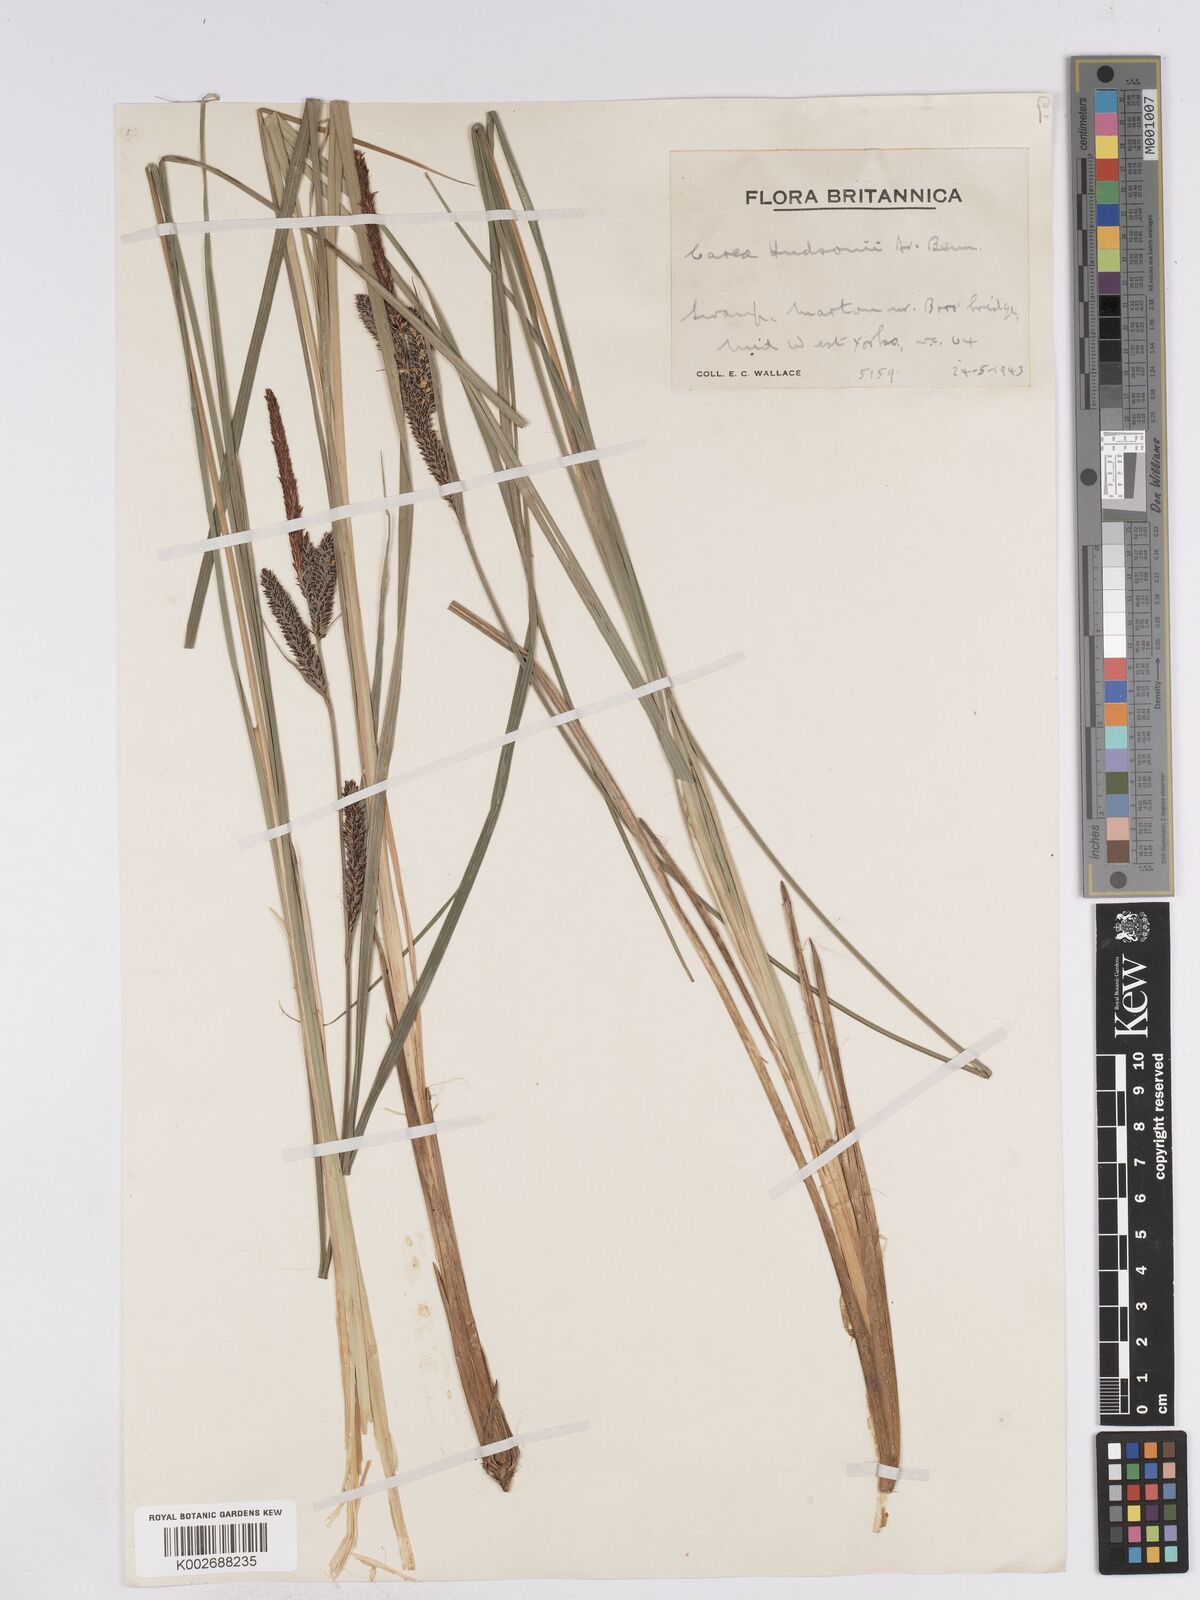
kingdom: Plantae
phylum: Tracheophyta
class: Liliopsida
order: Poales
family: Cyperaceae
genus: Carex
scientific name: Carex elata
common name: Tufted sedge
